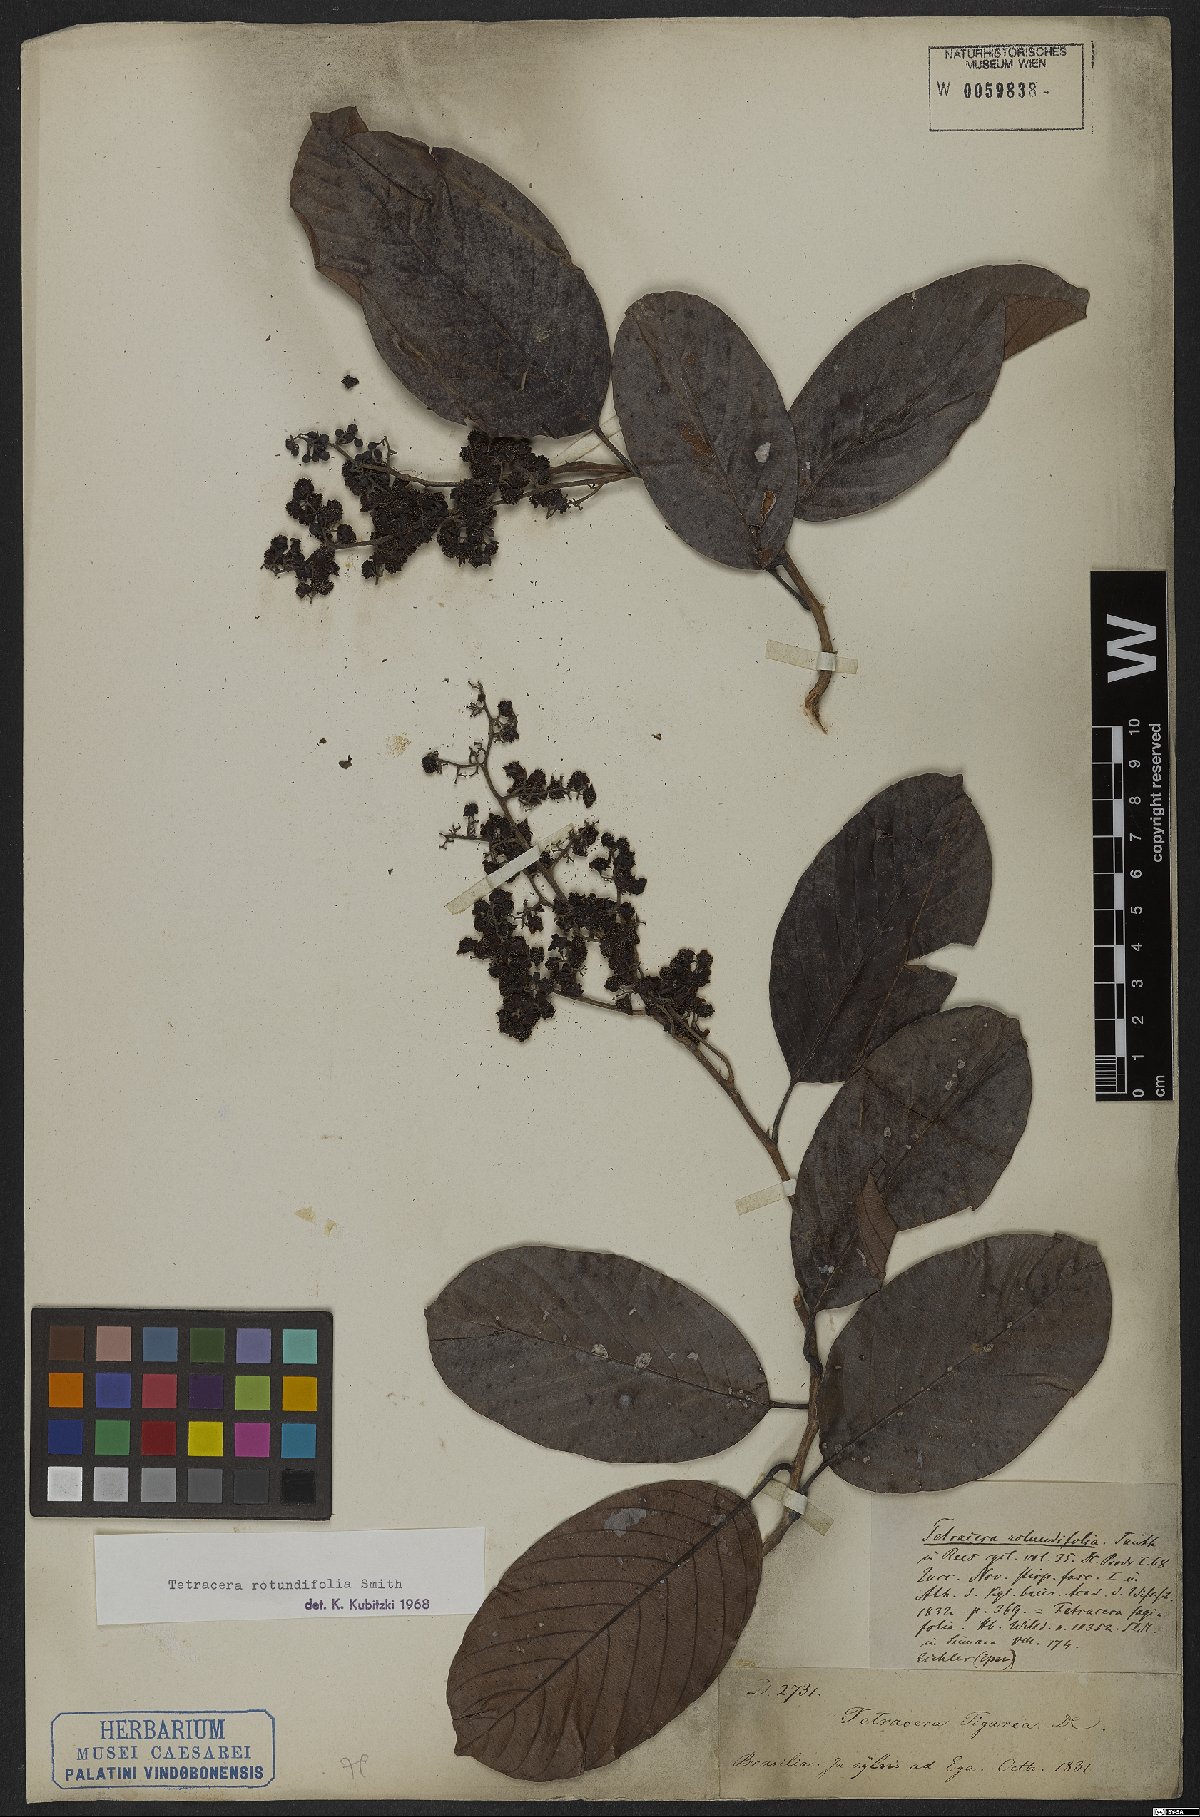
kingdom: Plantae
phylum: Tracheophyta
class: Magnoliopsida
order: Dilleniales
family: Dilleniaceae
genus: Tetracera
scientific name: Tetracera rotundifolia
